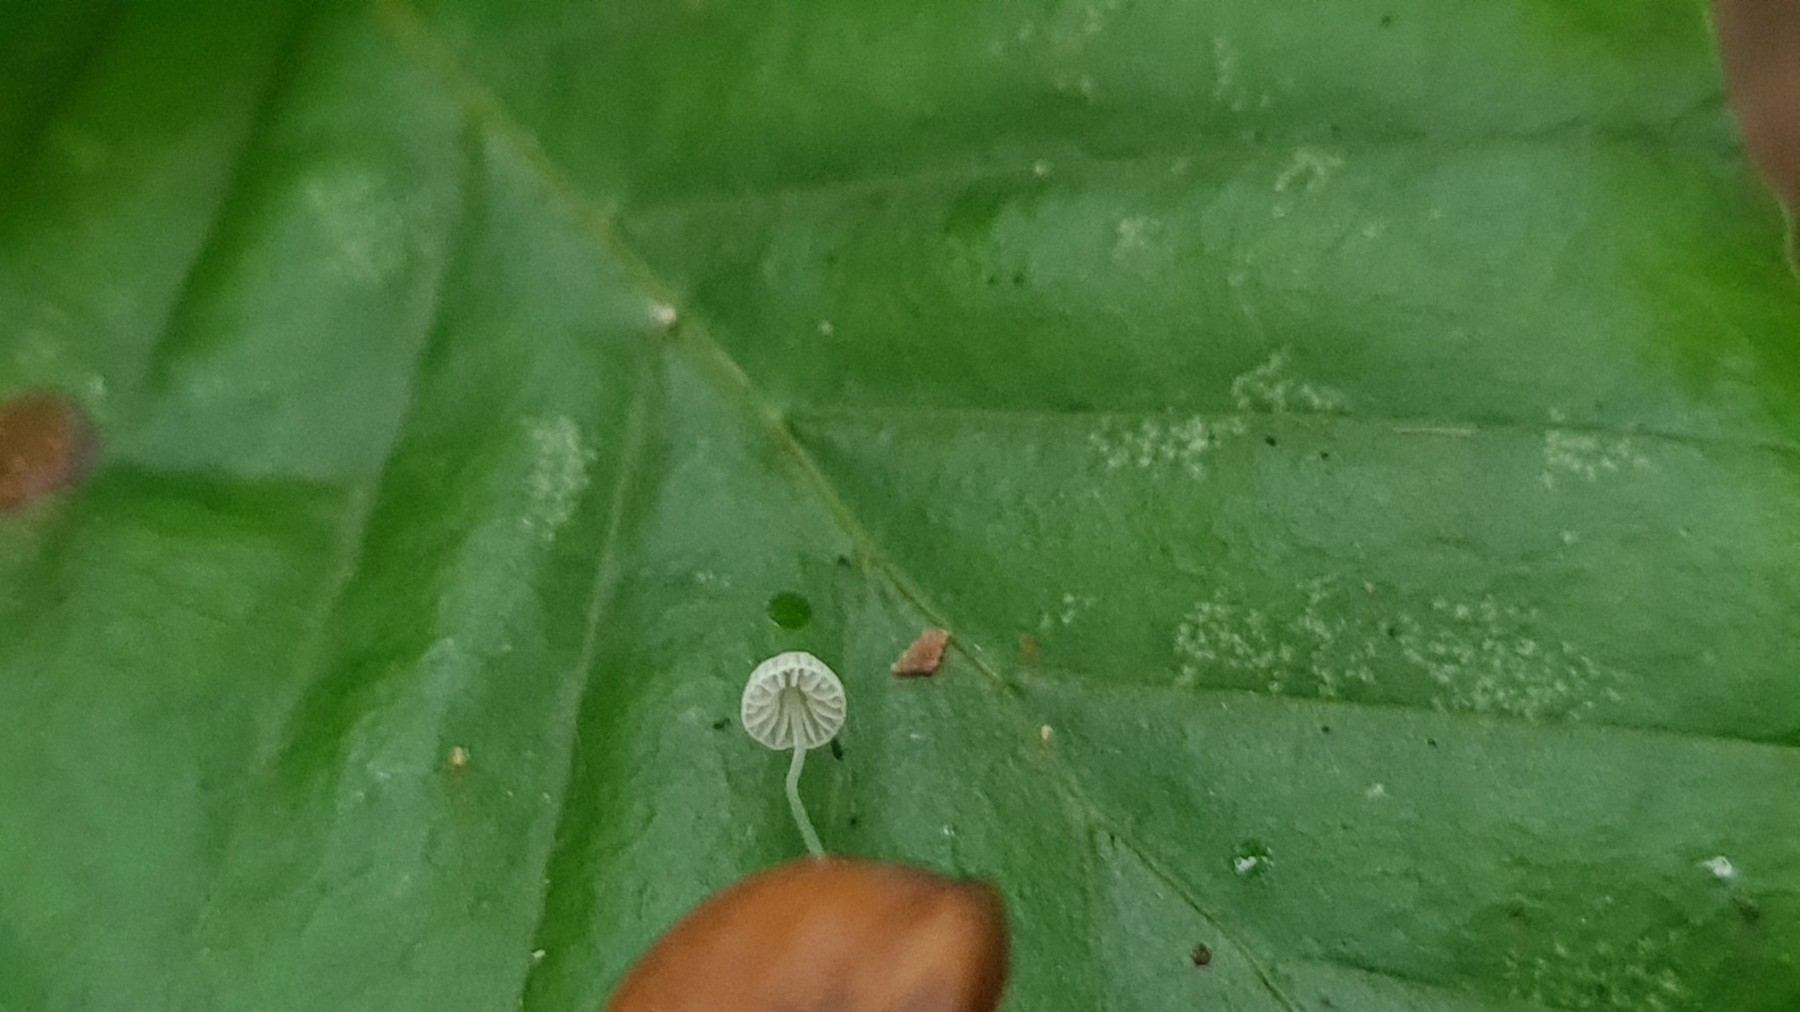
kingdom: Fungi
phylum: Basidiomycota
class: Agaricomycetes
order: Agaricales
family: Mycenaceae
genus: Mycena
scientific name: Mycena tenerrima
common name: pudret huesvamp
